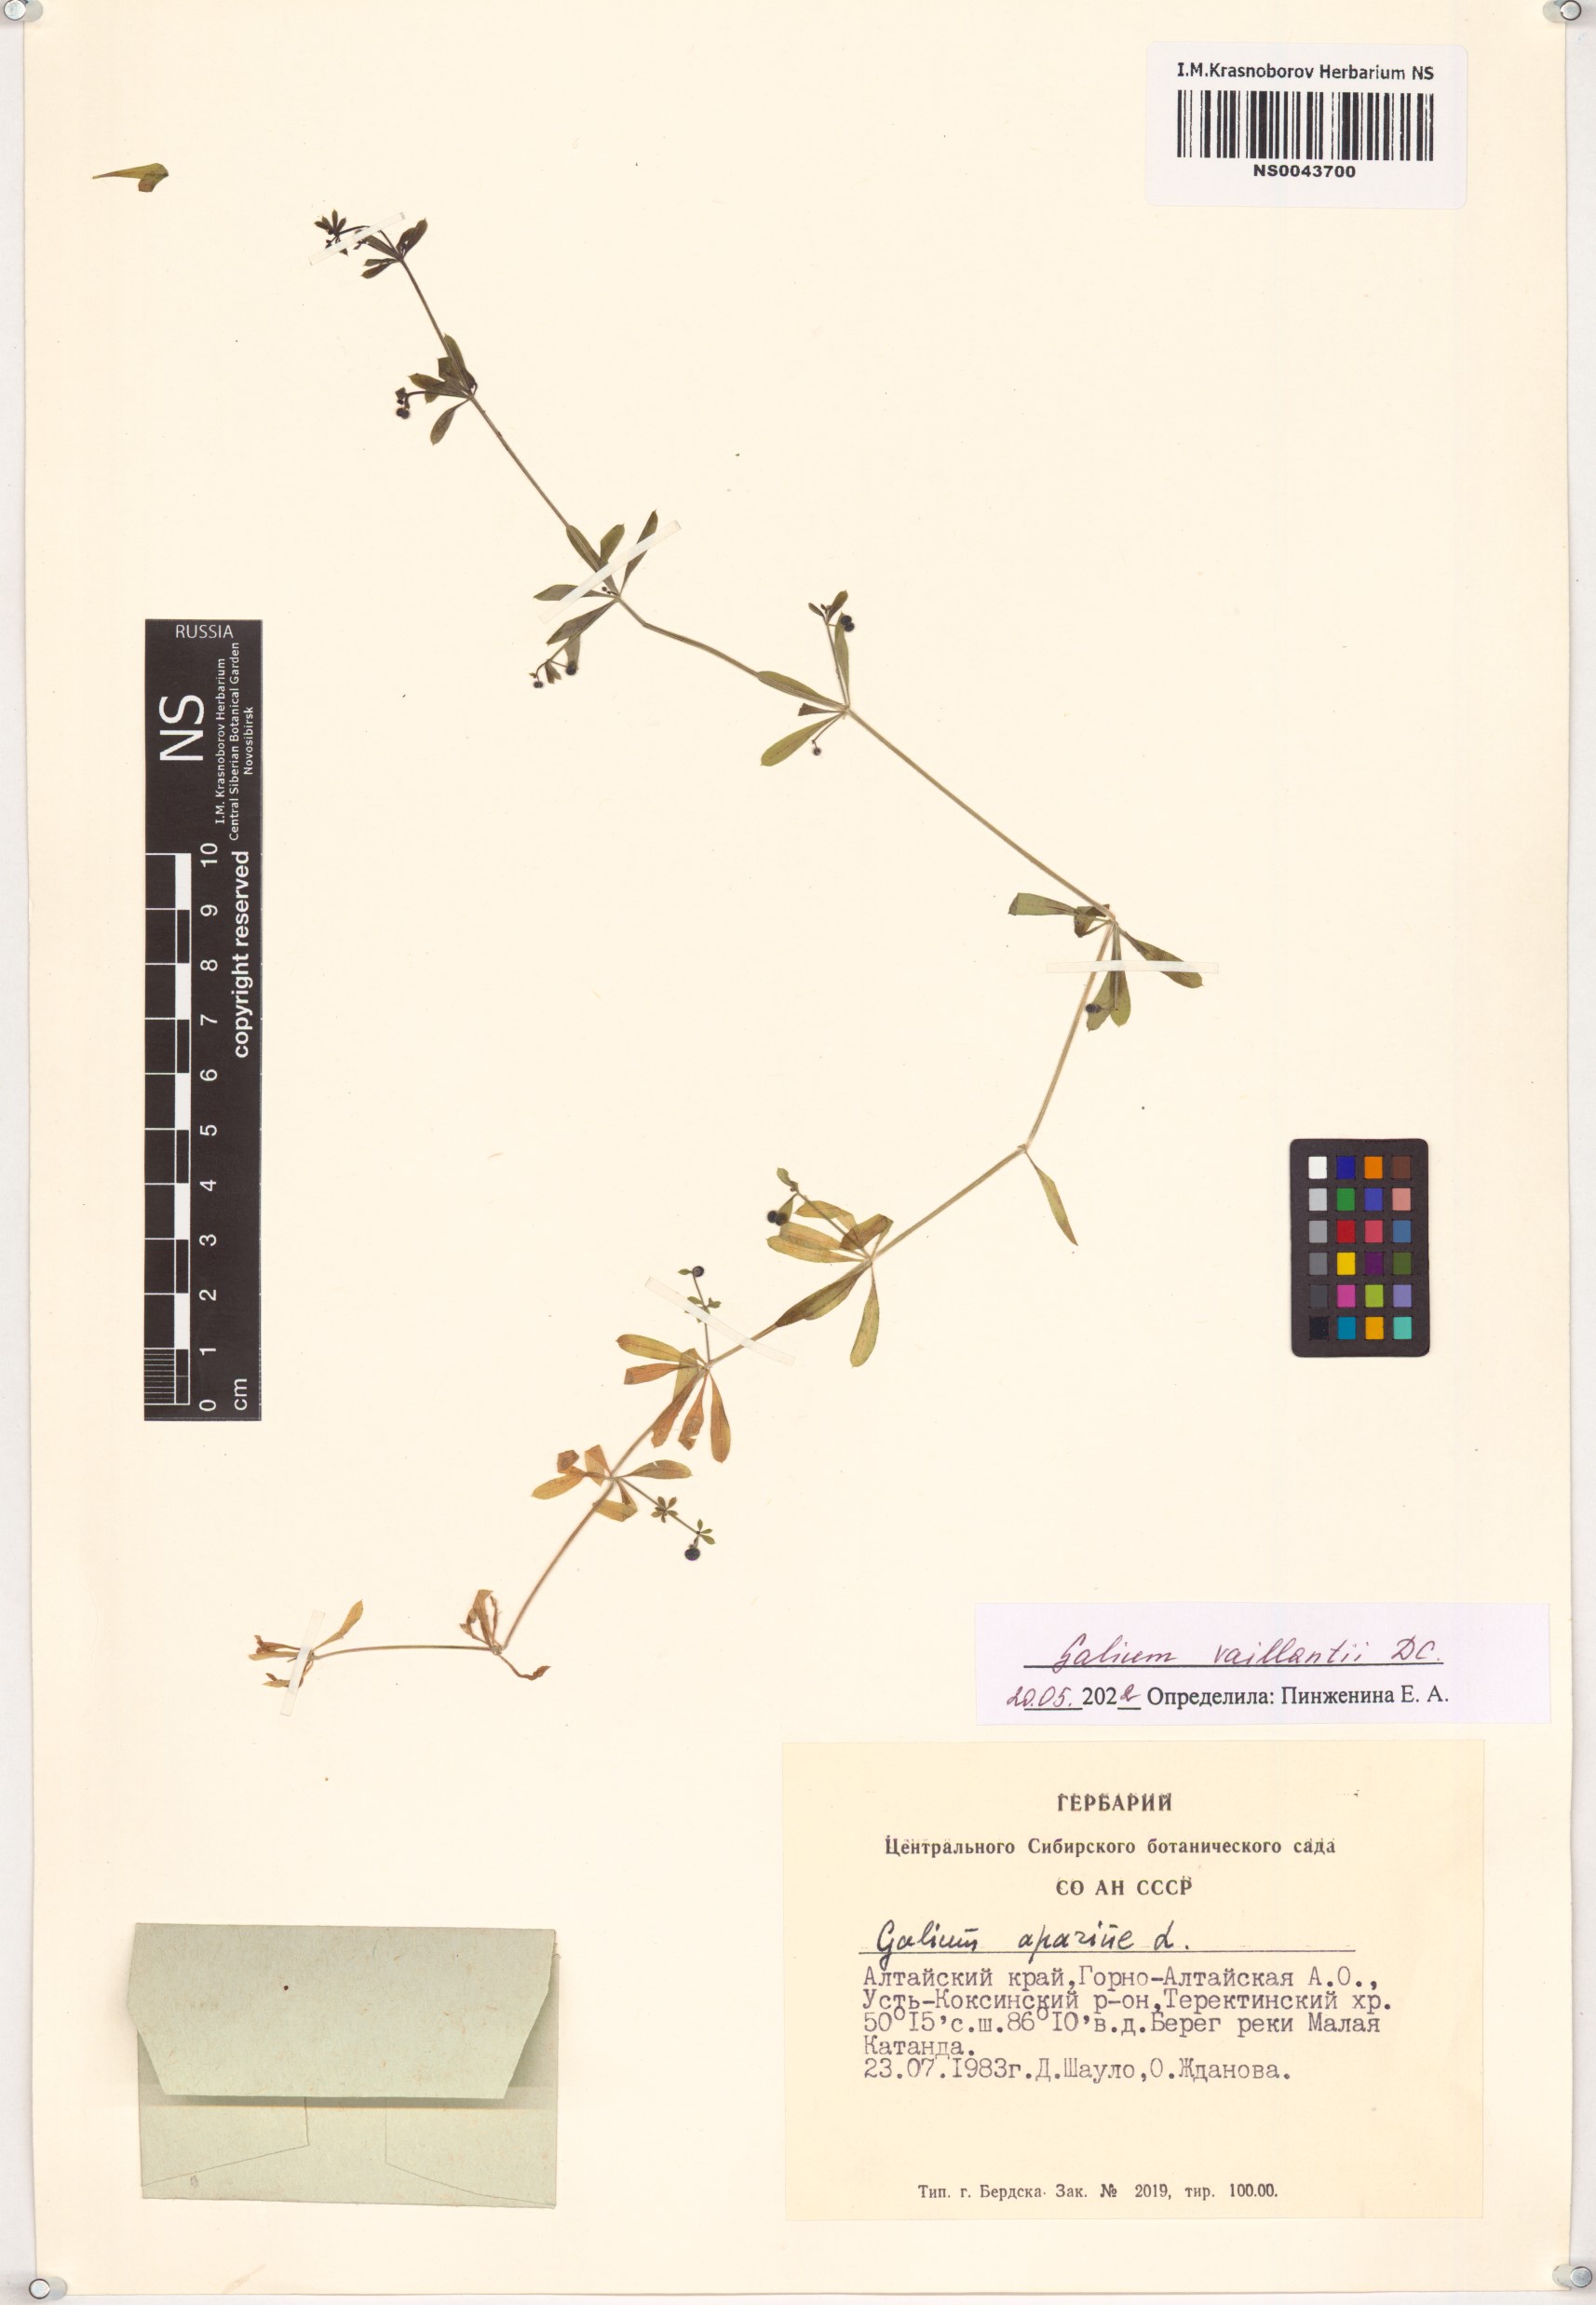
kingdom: Plantae
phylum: Tracheophyta
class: Magnoliopsida
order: Gentianales
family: Rubiaceae
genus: Galium
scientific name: Galium spurium
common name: False cleavers
